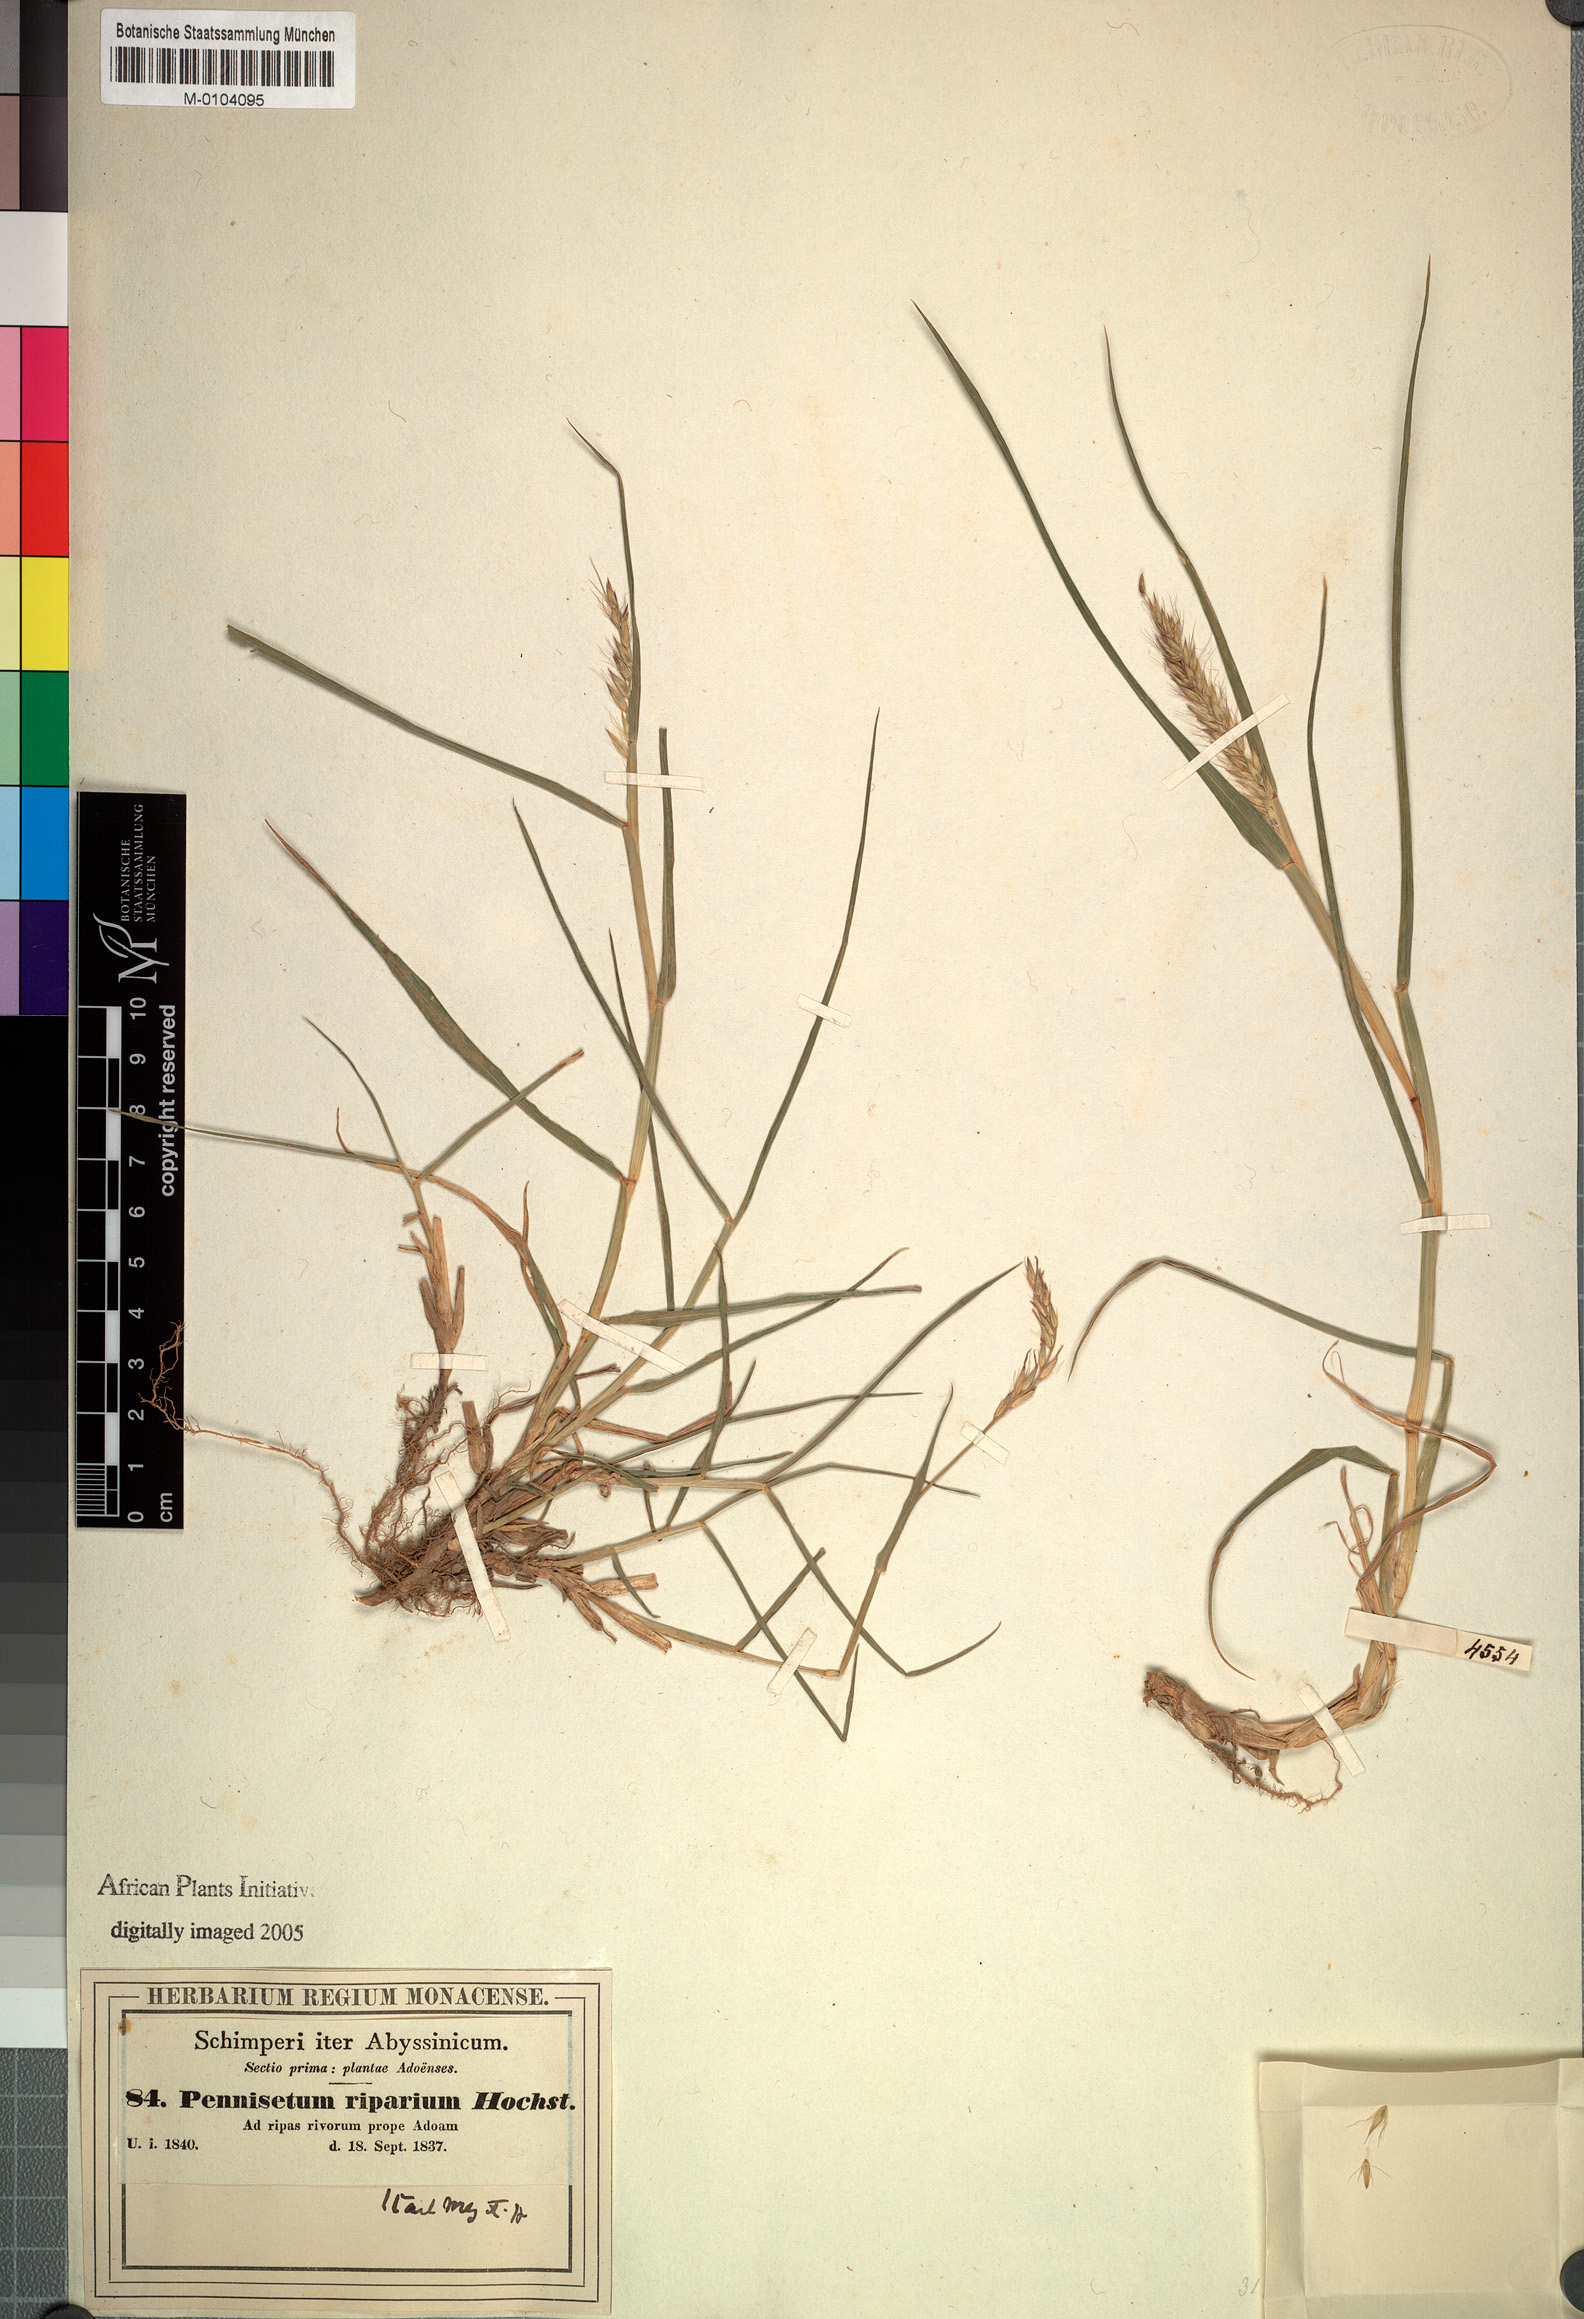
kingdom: Plantae
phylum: Tracheophyta
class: Liliopsida
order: Poales
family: Poaceae
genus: Cenchrus
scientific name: Cenchrus riparius
